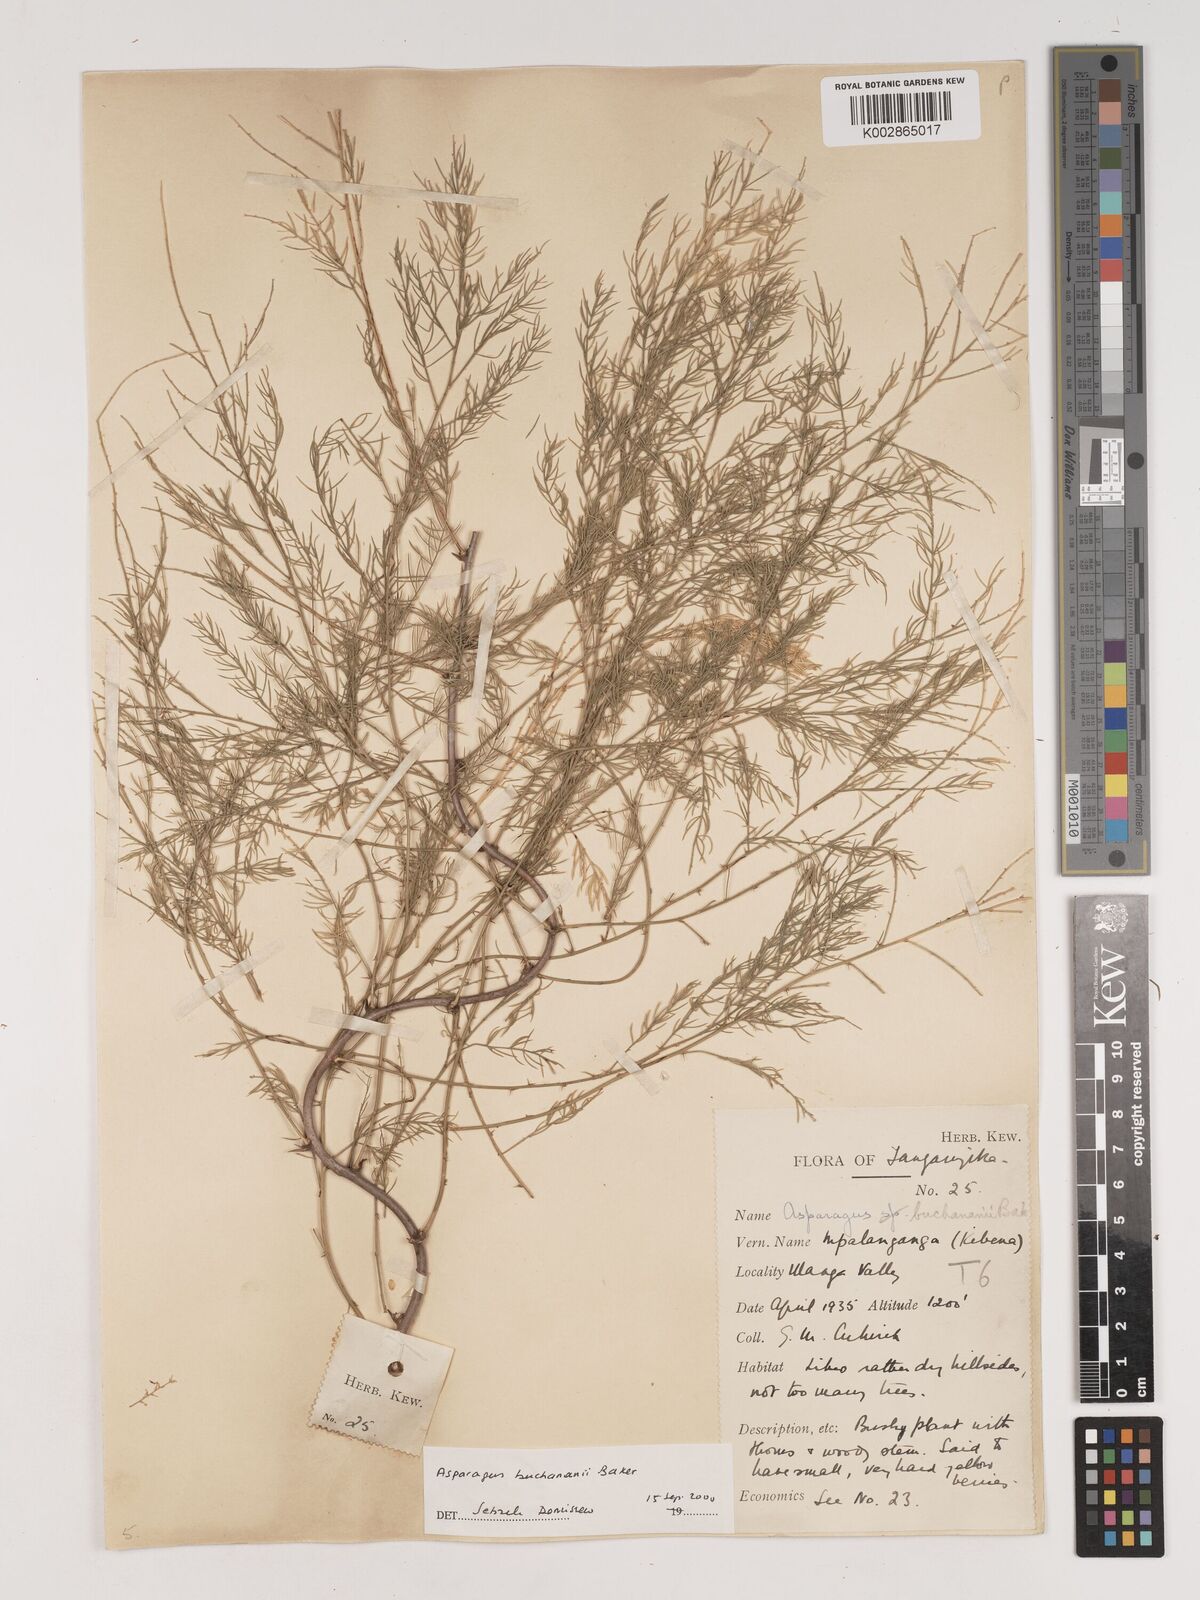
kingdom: Plantae
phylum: Tracheophyta
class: Liliopsida
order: Asparagales
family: Asparagaceae
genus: Asparagus
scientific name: Asparagus buchananii
